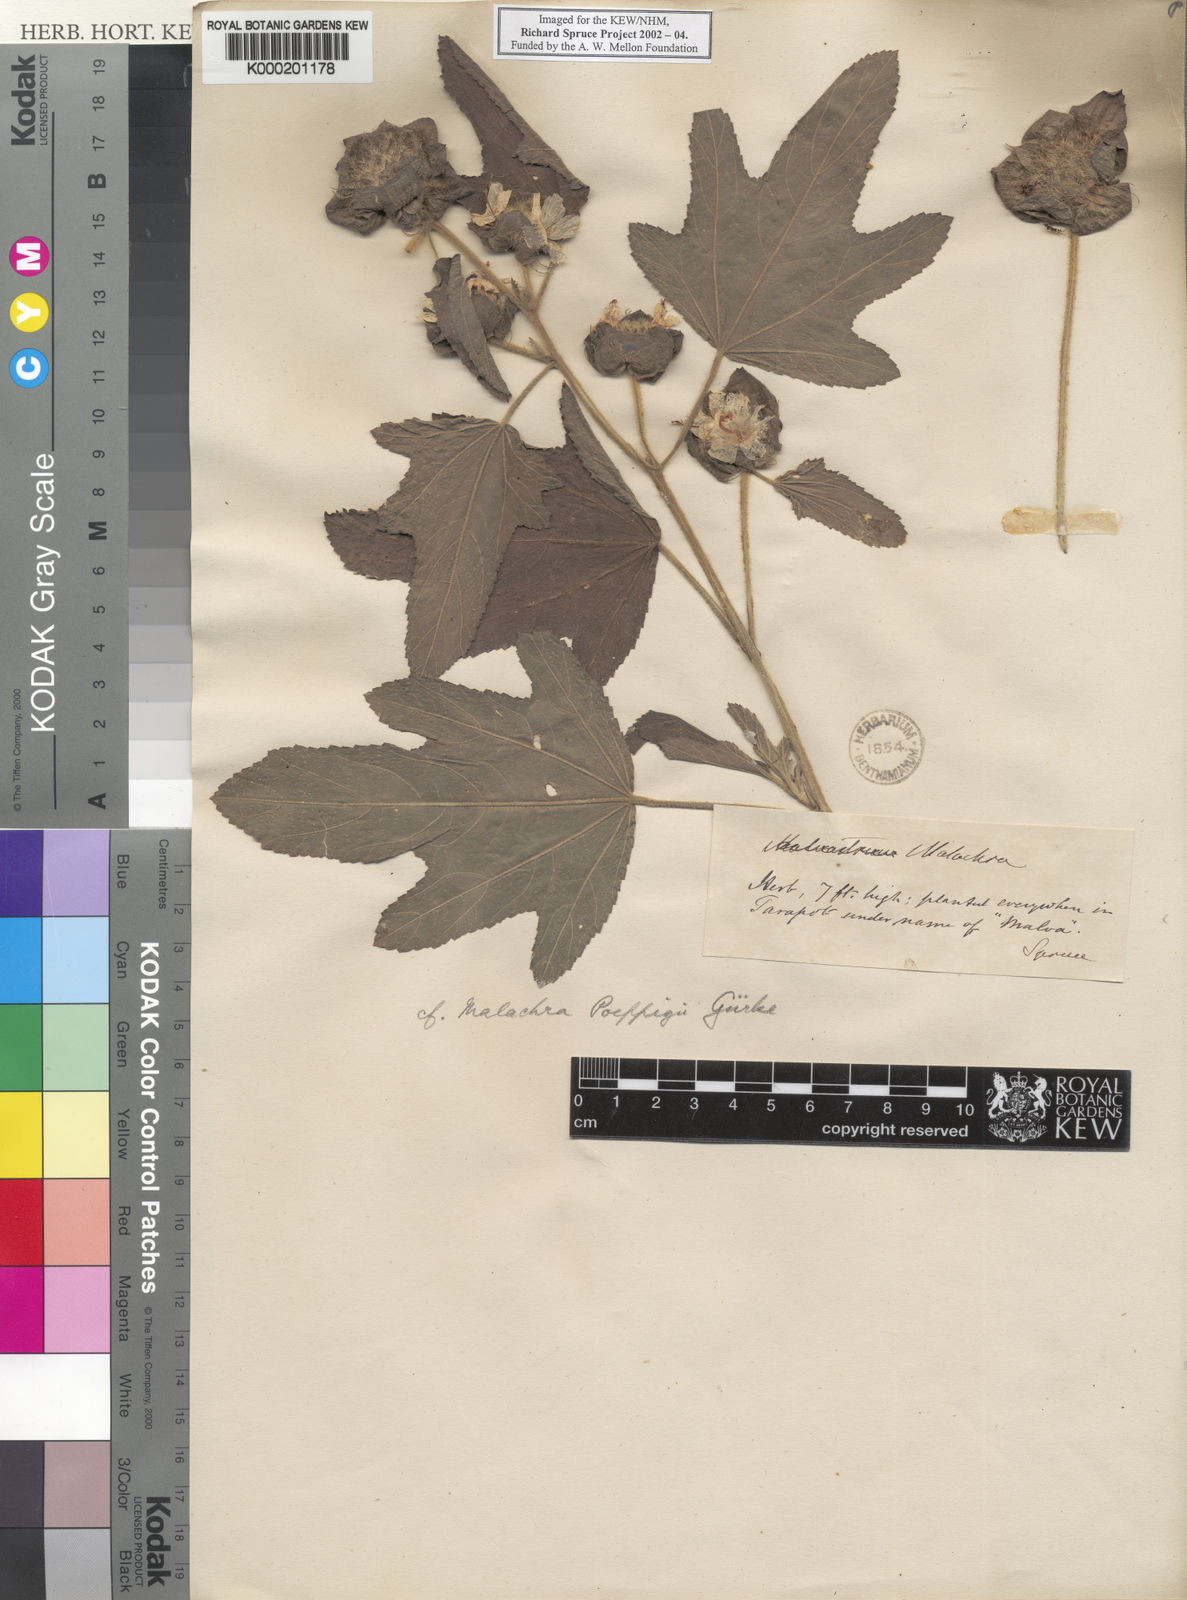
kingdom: Plantae
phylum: Tracheophyta
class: Magnoliopsida
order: Malvales
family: Malvaceae
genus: Malachra
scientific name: Malachra
